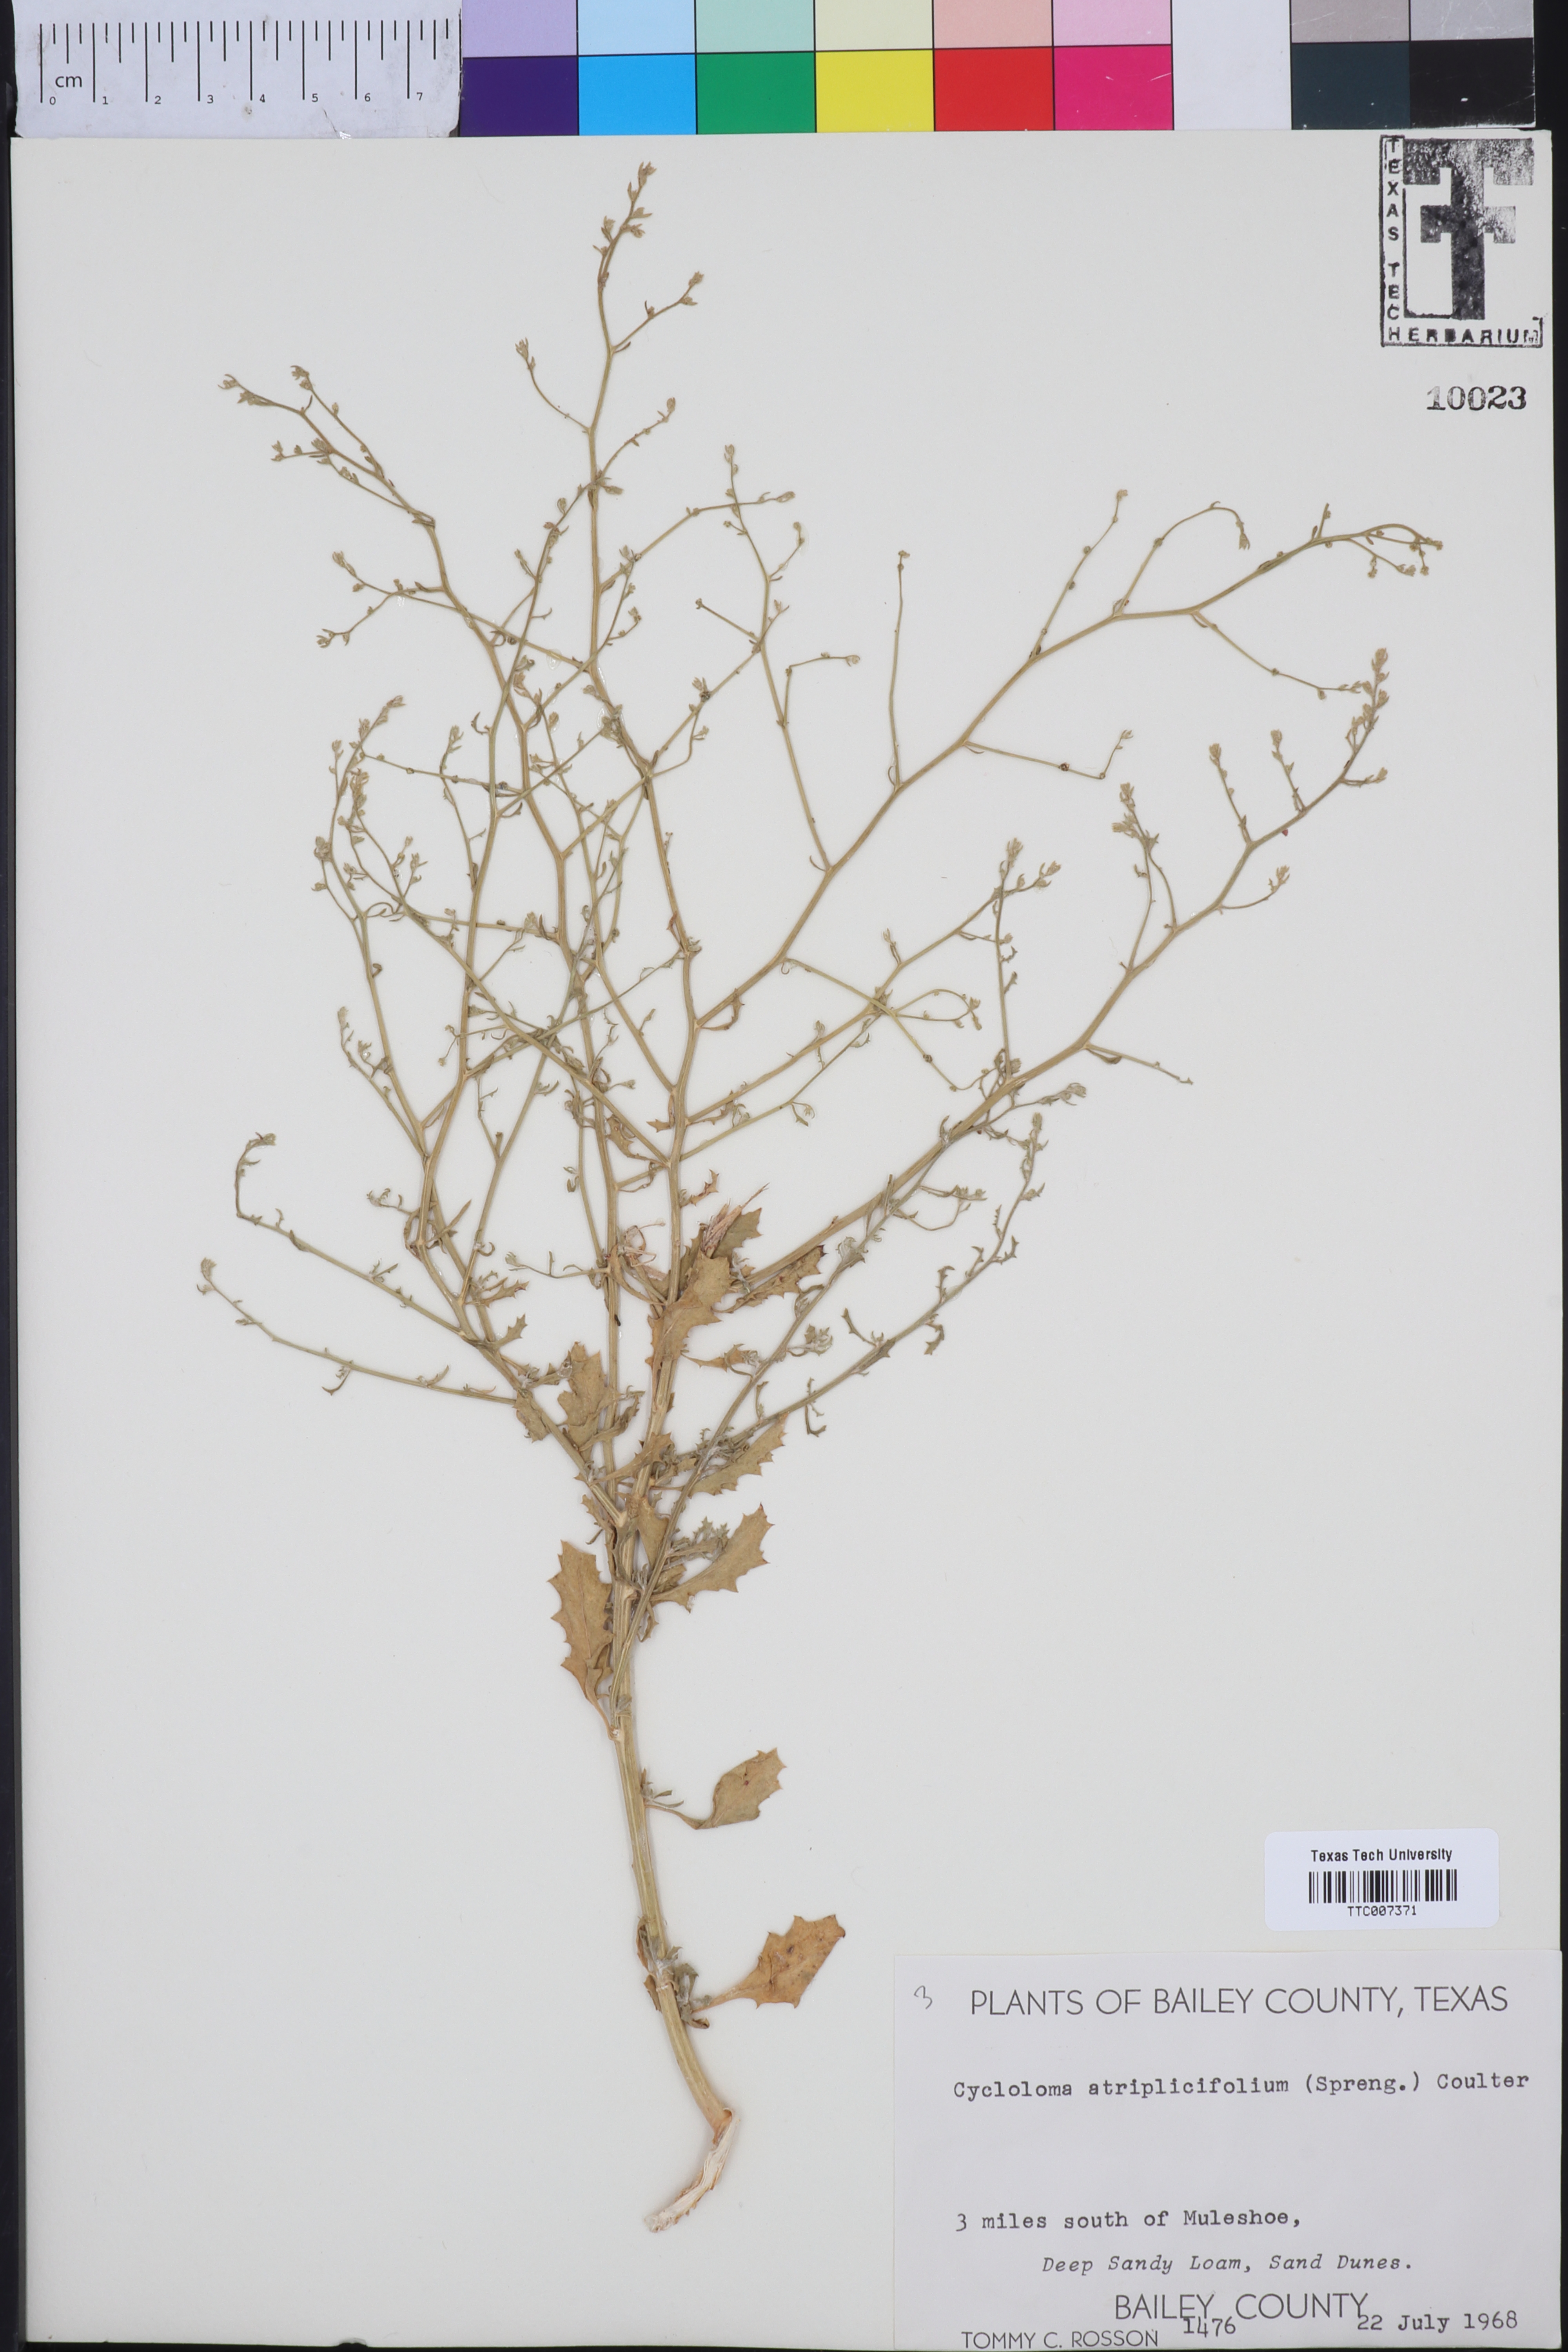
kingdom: Plantae
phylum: Tracheophyta
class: Magnoliopsida
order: Caryophyllales
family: Amaranthaceae
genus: Dysphania
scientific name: Dysphania atriplicifolia
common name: Plains tumbleweed
